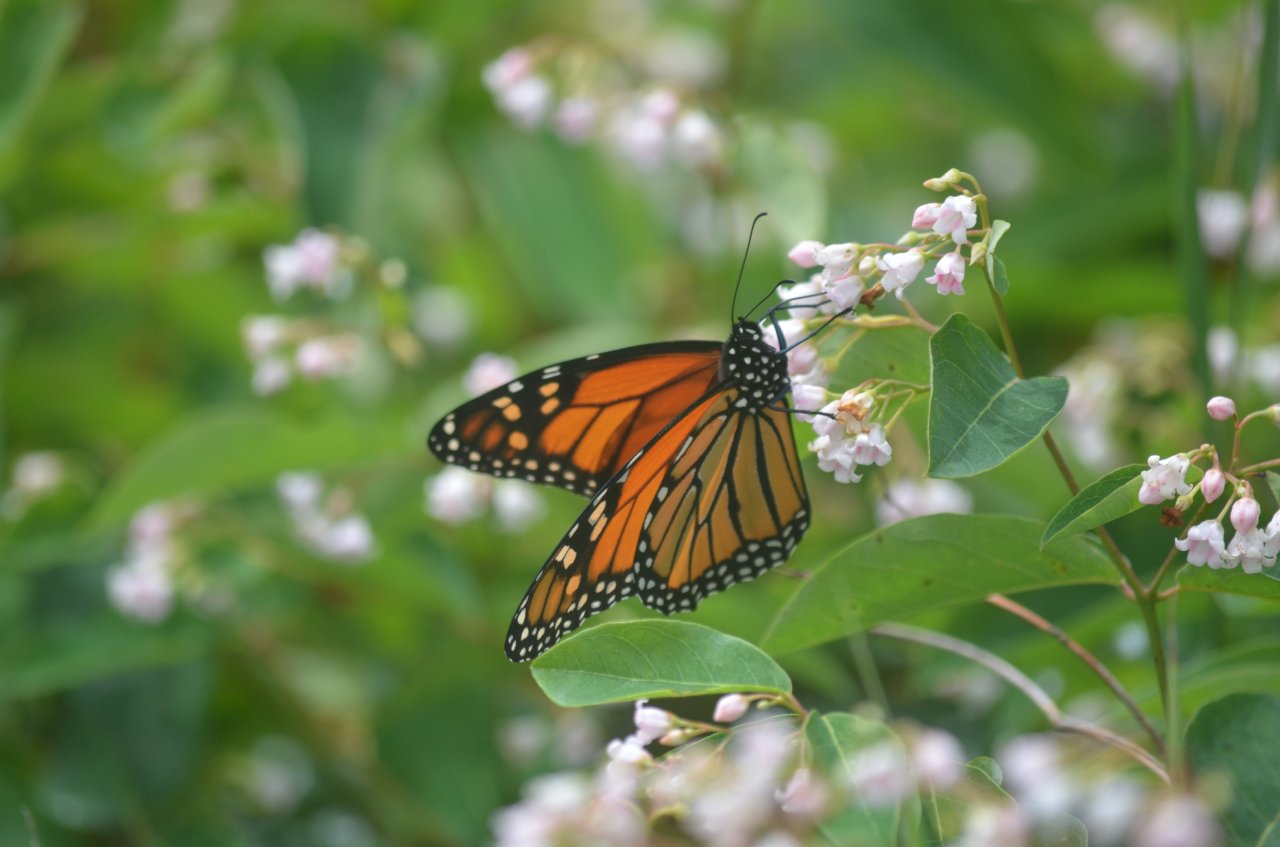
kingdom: Animalia
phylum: Arthropoda
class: Insecta
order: Lepidoptera
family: Nymphalidae
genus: Danaus
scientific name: Danaus plexippus
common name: Monarch
